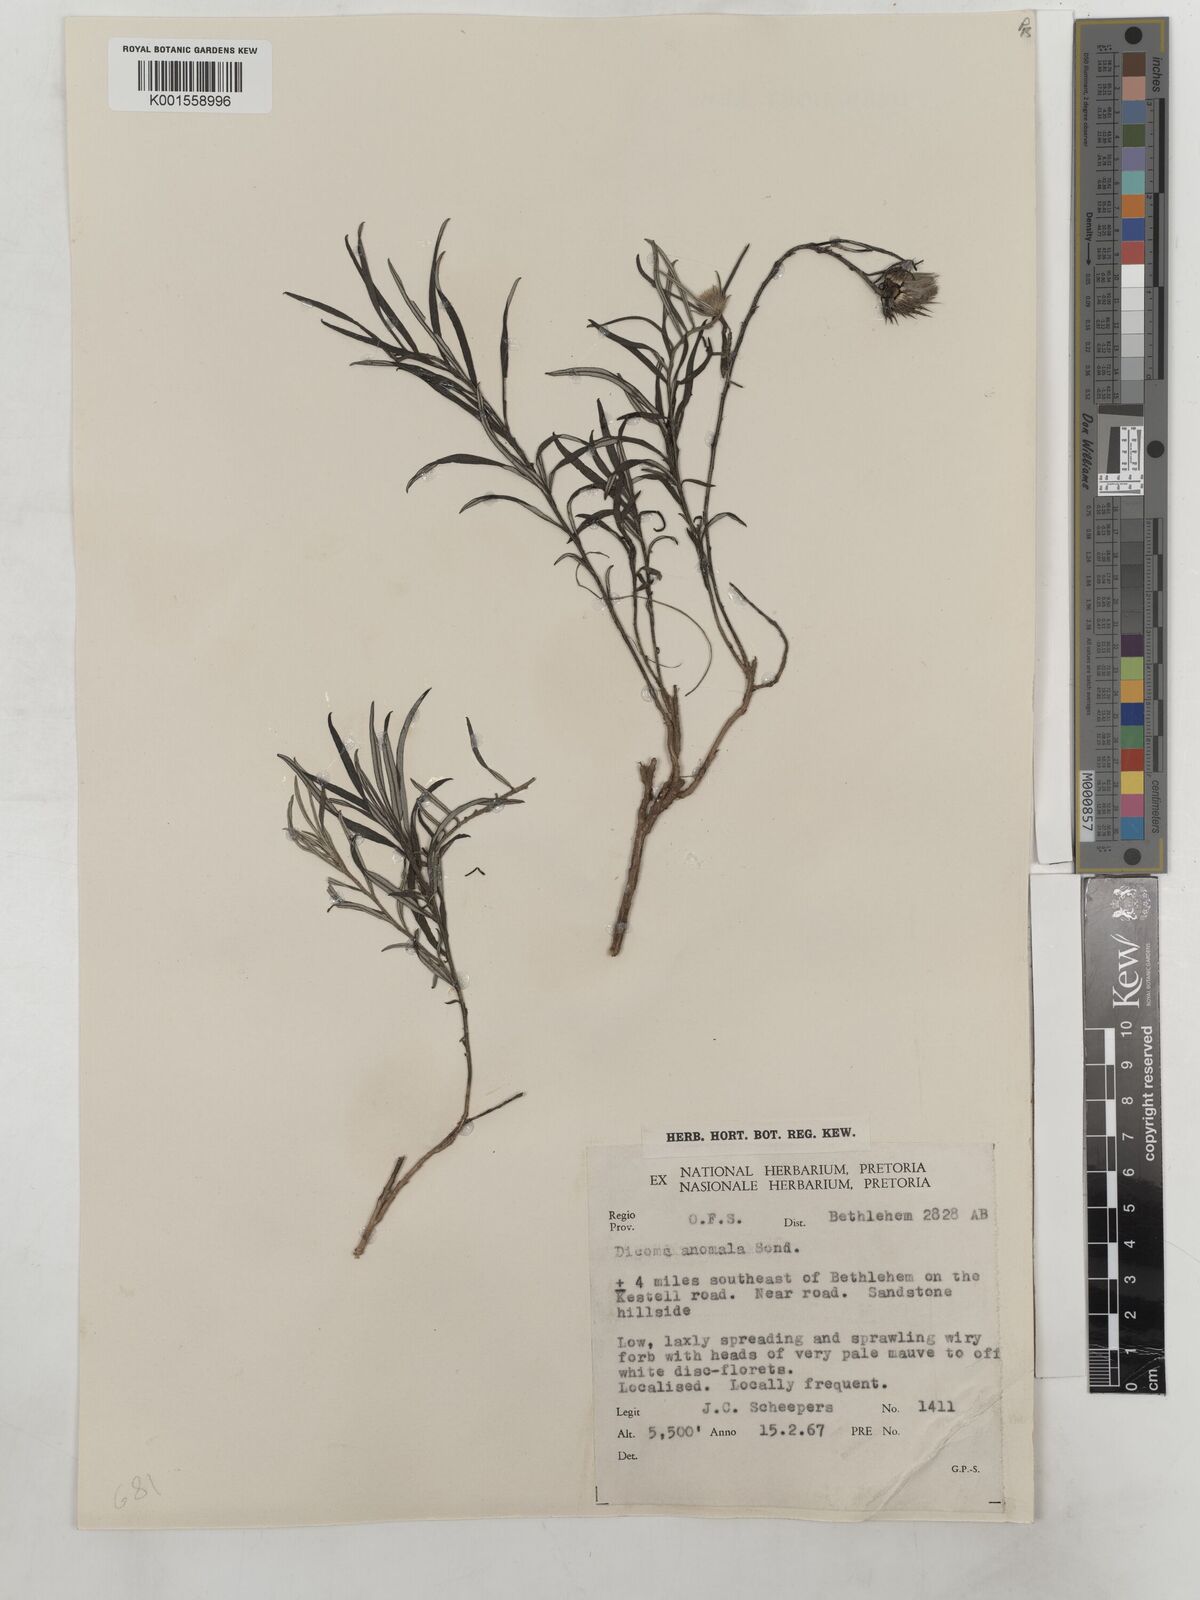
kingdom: Plantae
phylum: Tracheophyta
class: Magnoliopsida
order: Asterales
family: Asteraceae
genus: Dicoma
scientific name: Dicoma anomala
